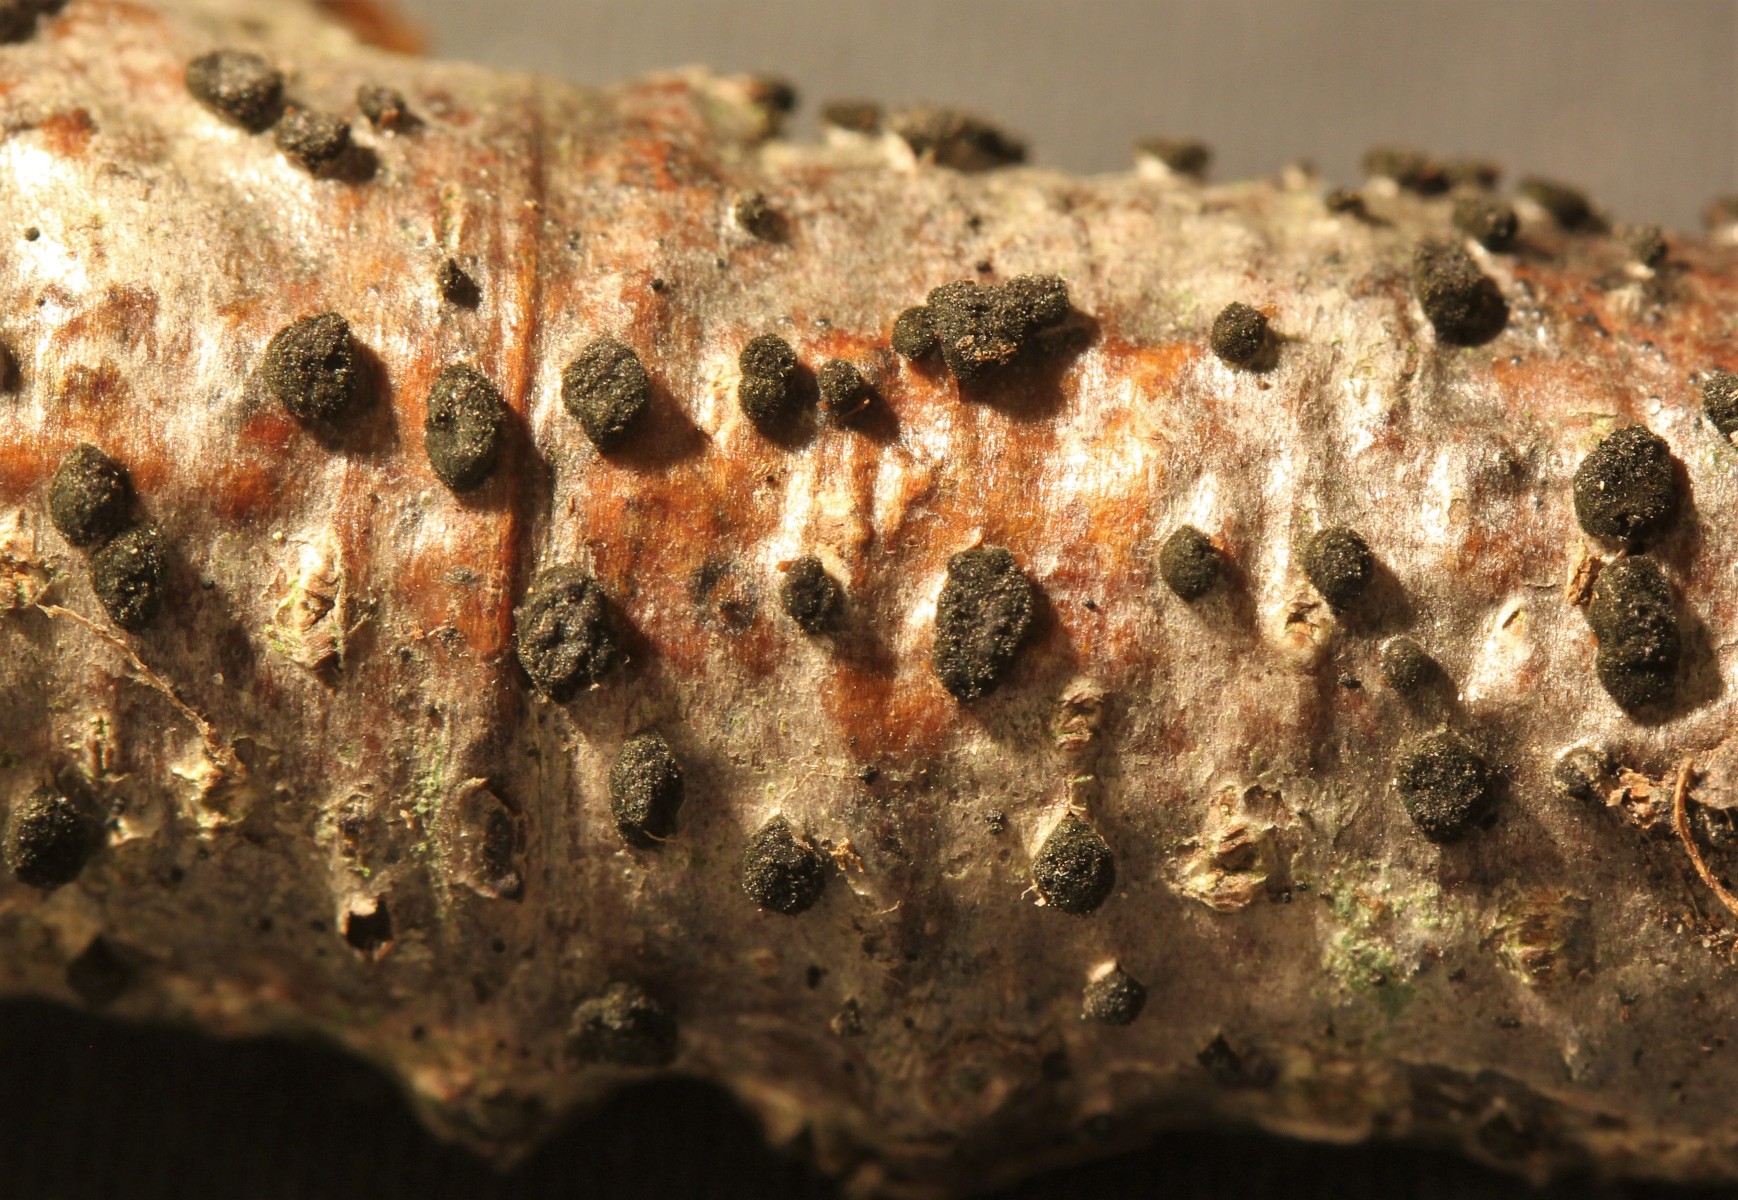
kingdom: Fungi
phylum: Ascomycota
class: Dothideomycetes
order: Pleosporales
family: Massarinaceae
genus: Helminthosporium
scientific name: Helminthosporium oligosporum
